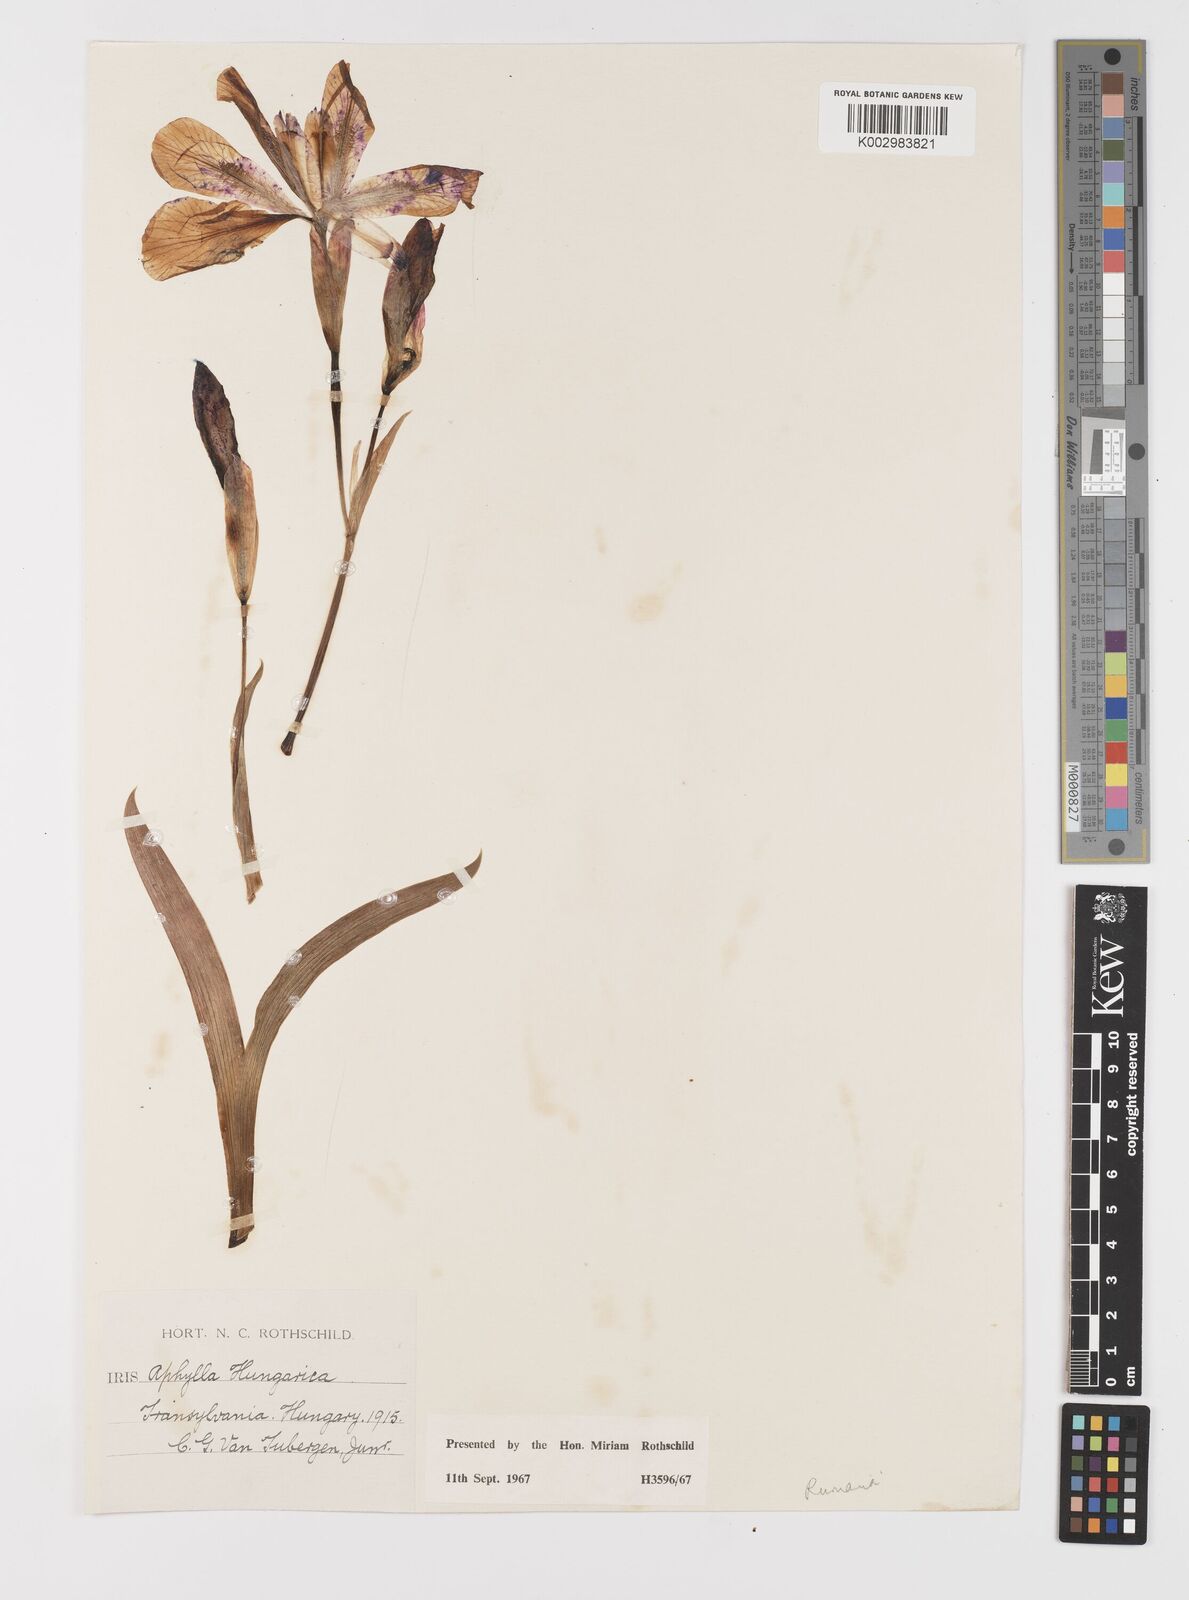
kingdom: Plantae
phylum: Tracheophyta
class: Liliopsida
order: Asparagales
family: Iridaceae
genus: Iris
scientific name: Iris aphylla
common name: Stool iris
